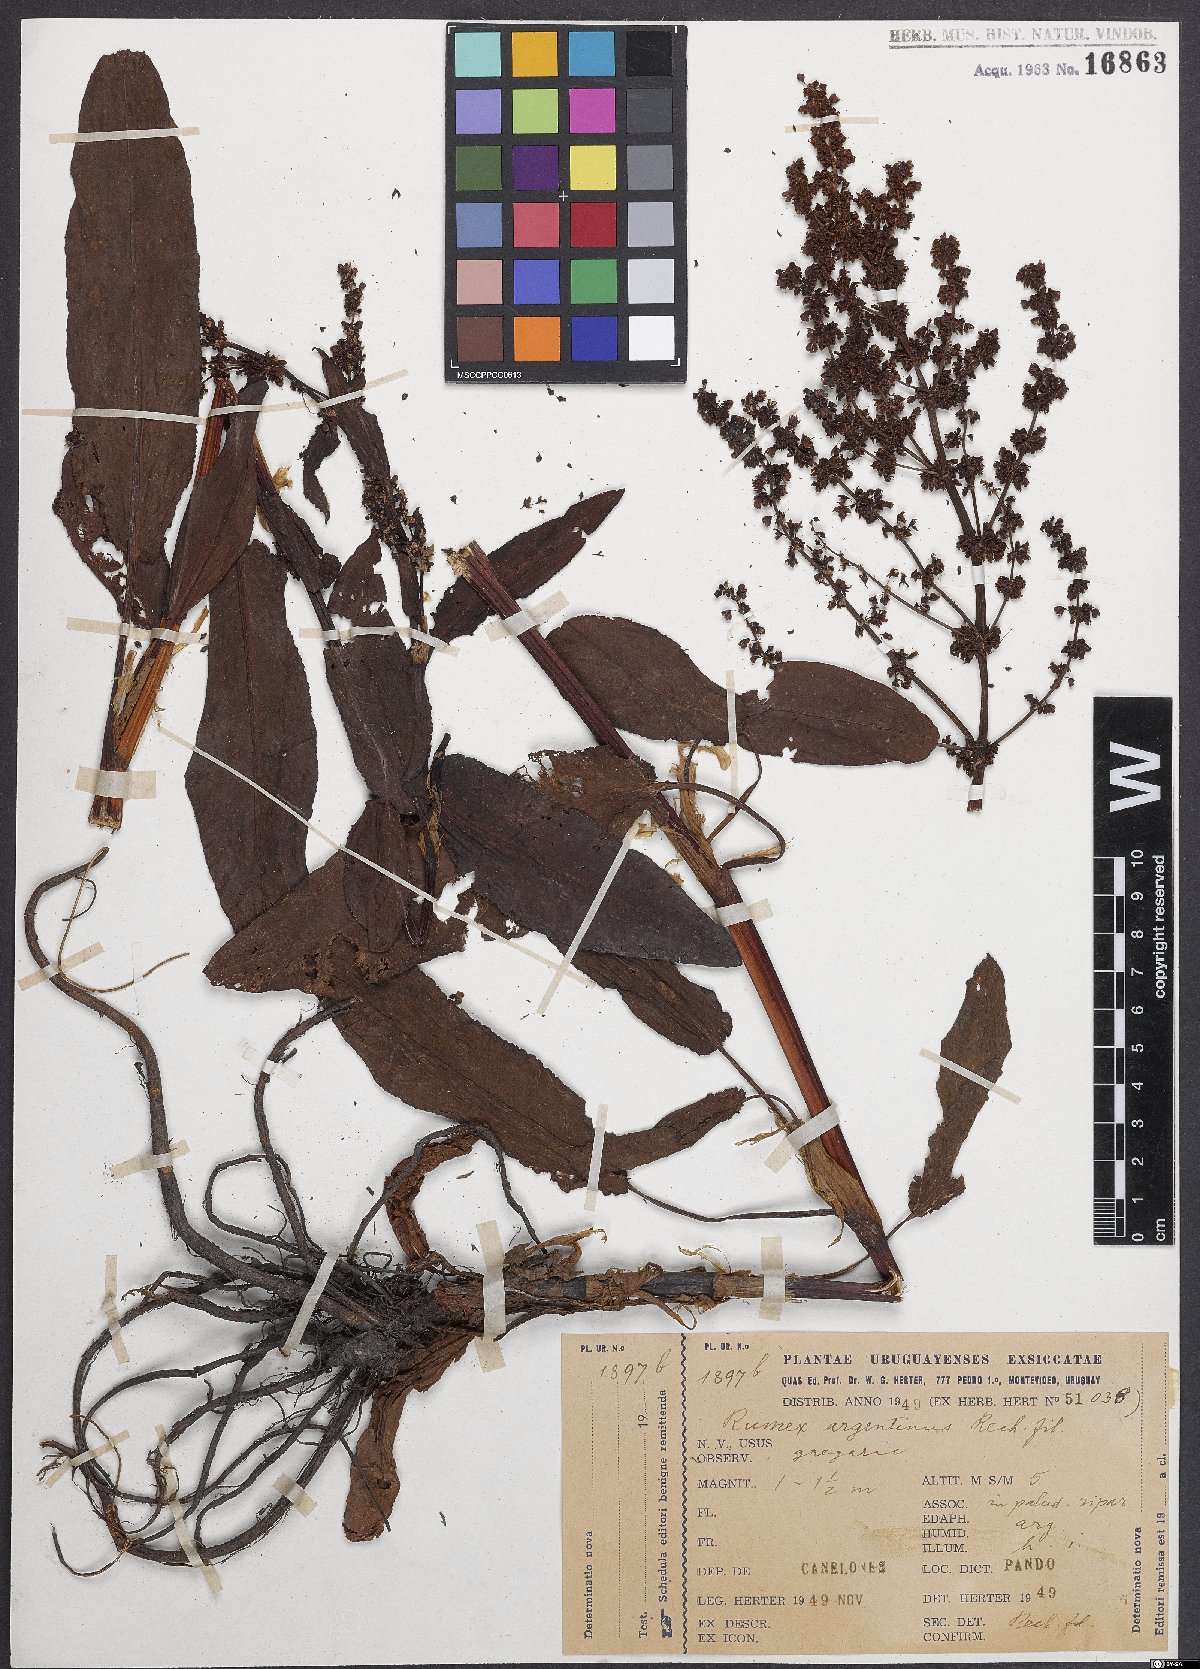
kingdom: Plantae
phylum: Tracheophyta
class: Magnoliopsida
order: Caryophyllales
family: Polygonaceae
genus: Rumex
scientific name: Rumex argentinus
